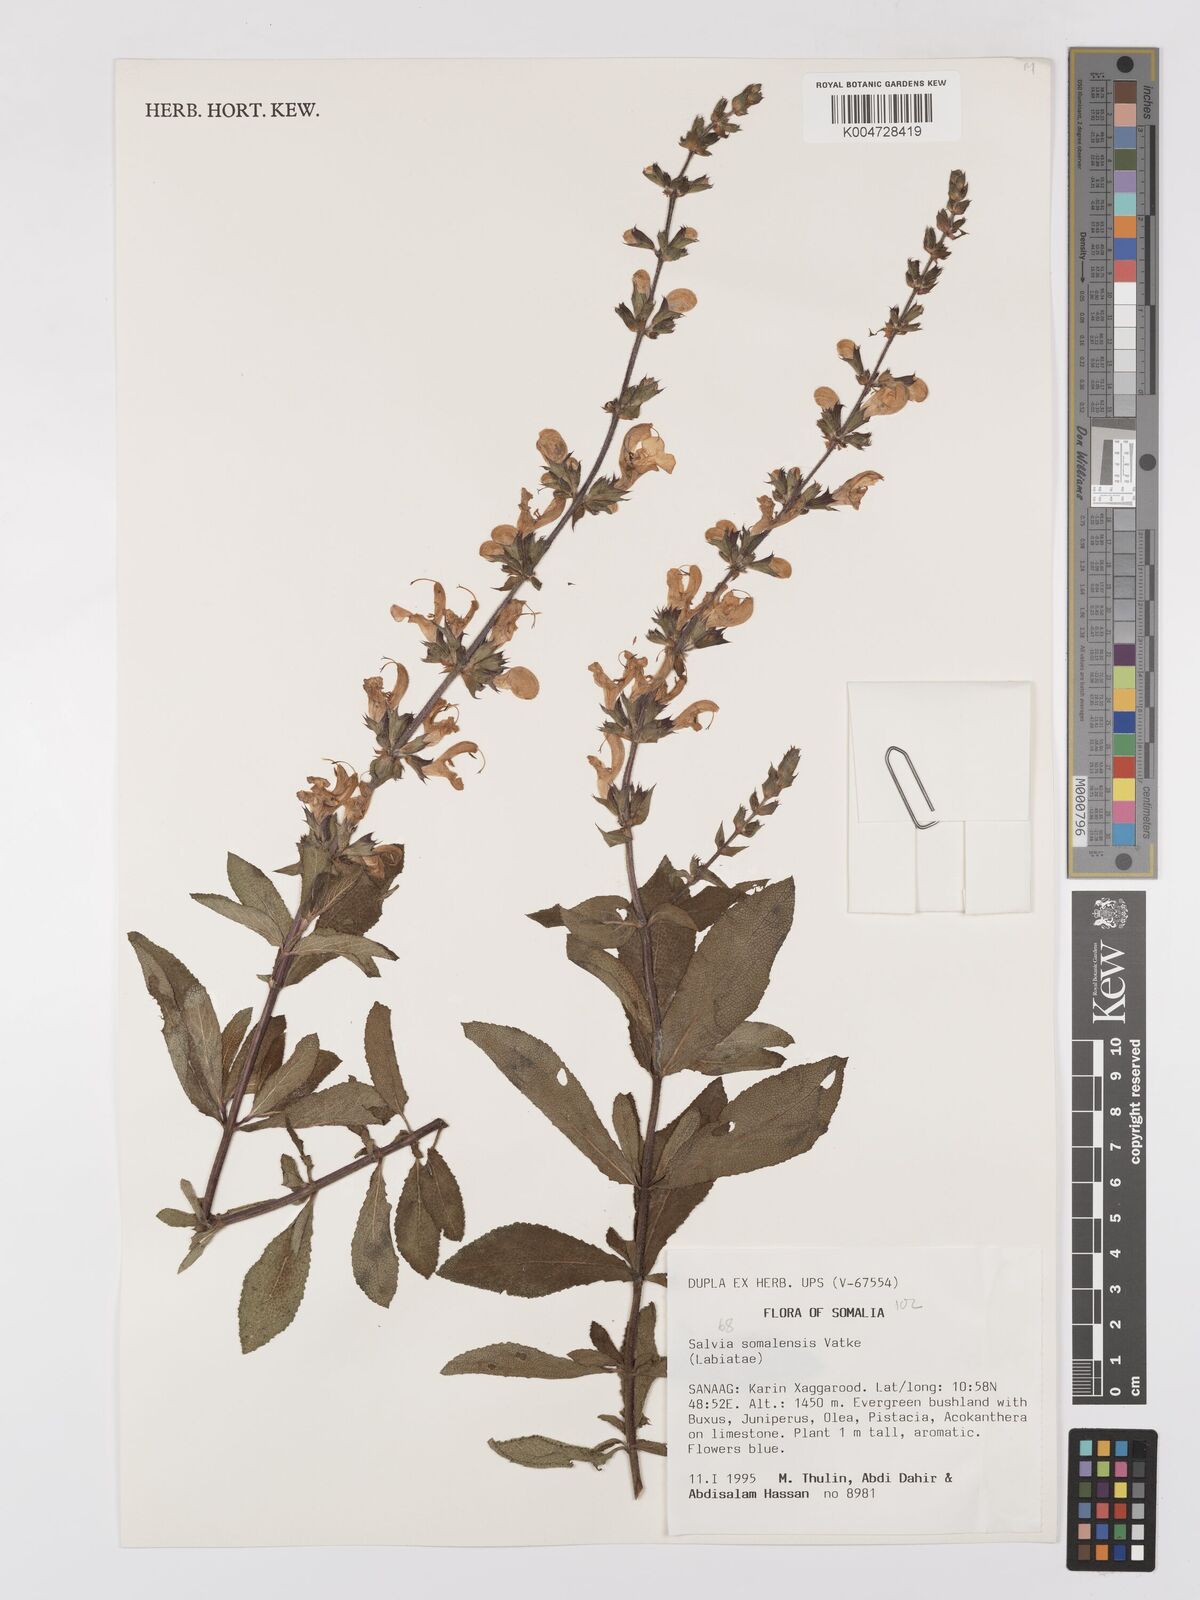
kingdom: Plantae
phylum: Tracheophyta
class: Magnoliopsida
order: Lamiales
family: Lamiaceae
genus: Salvia
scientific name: Salvia somalensis
